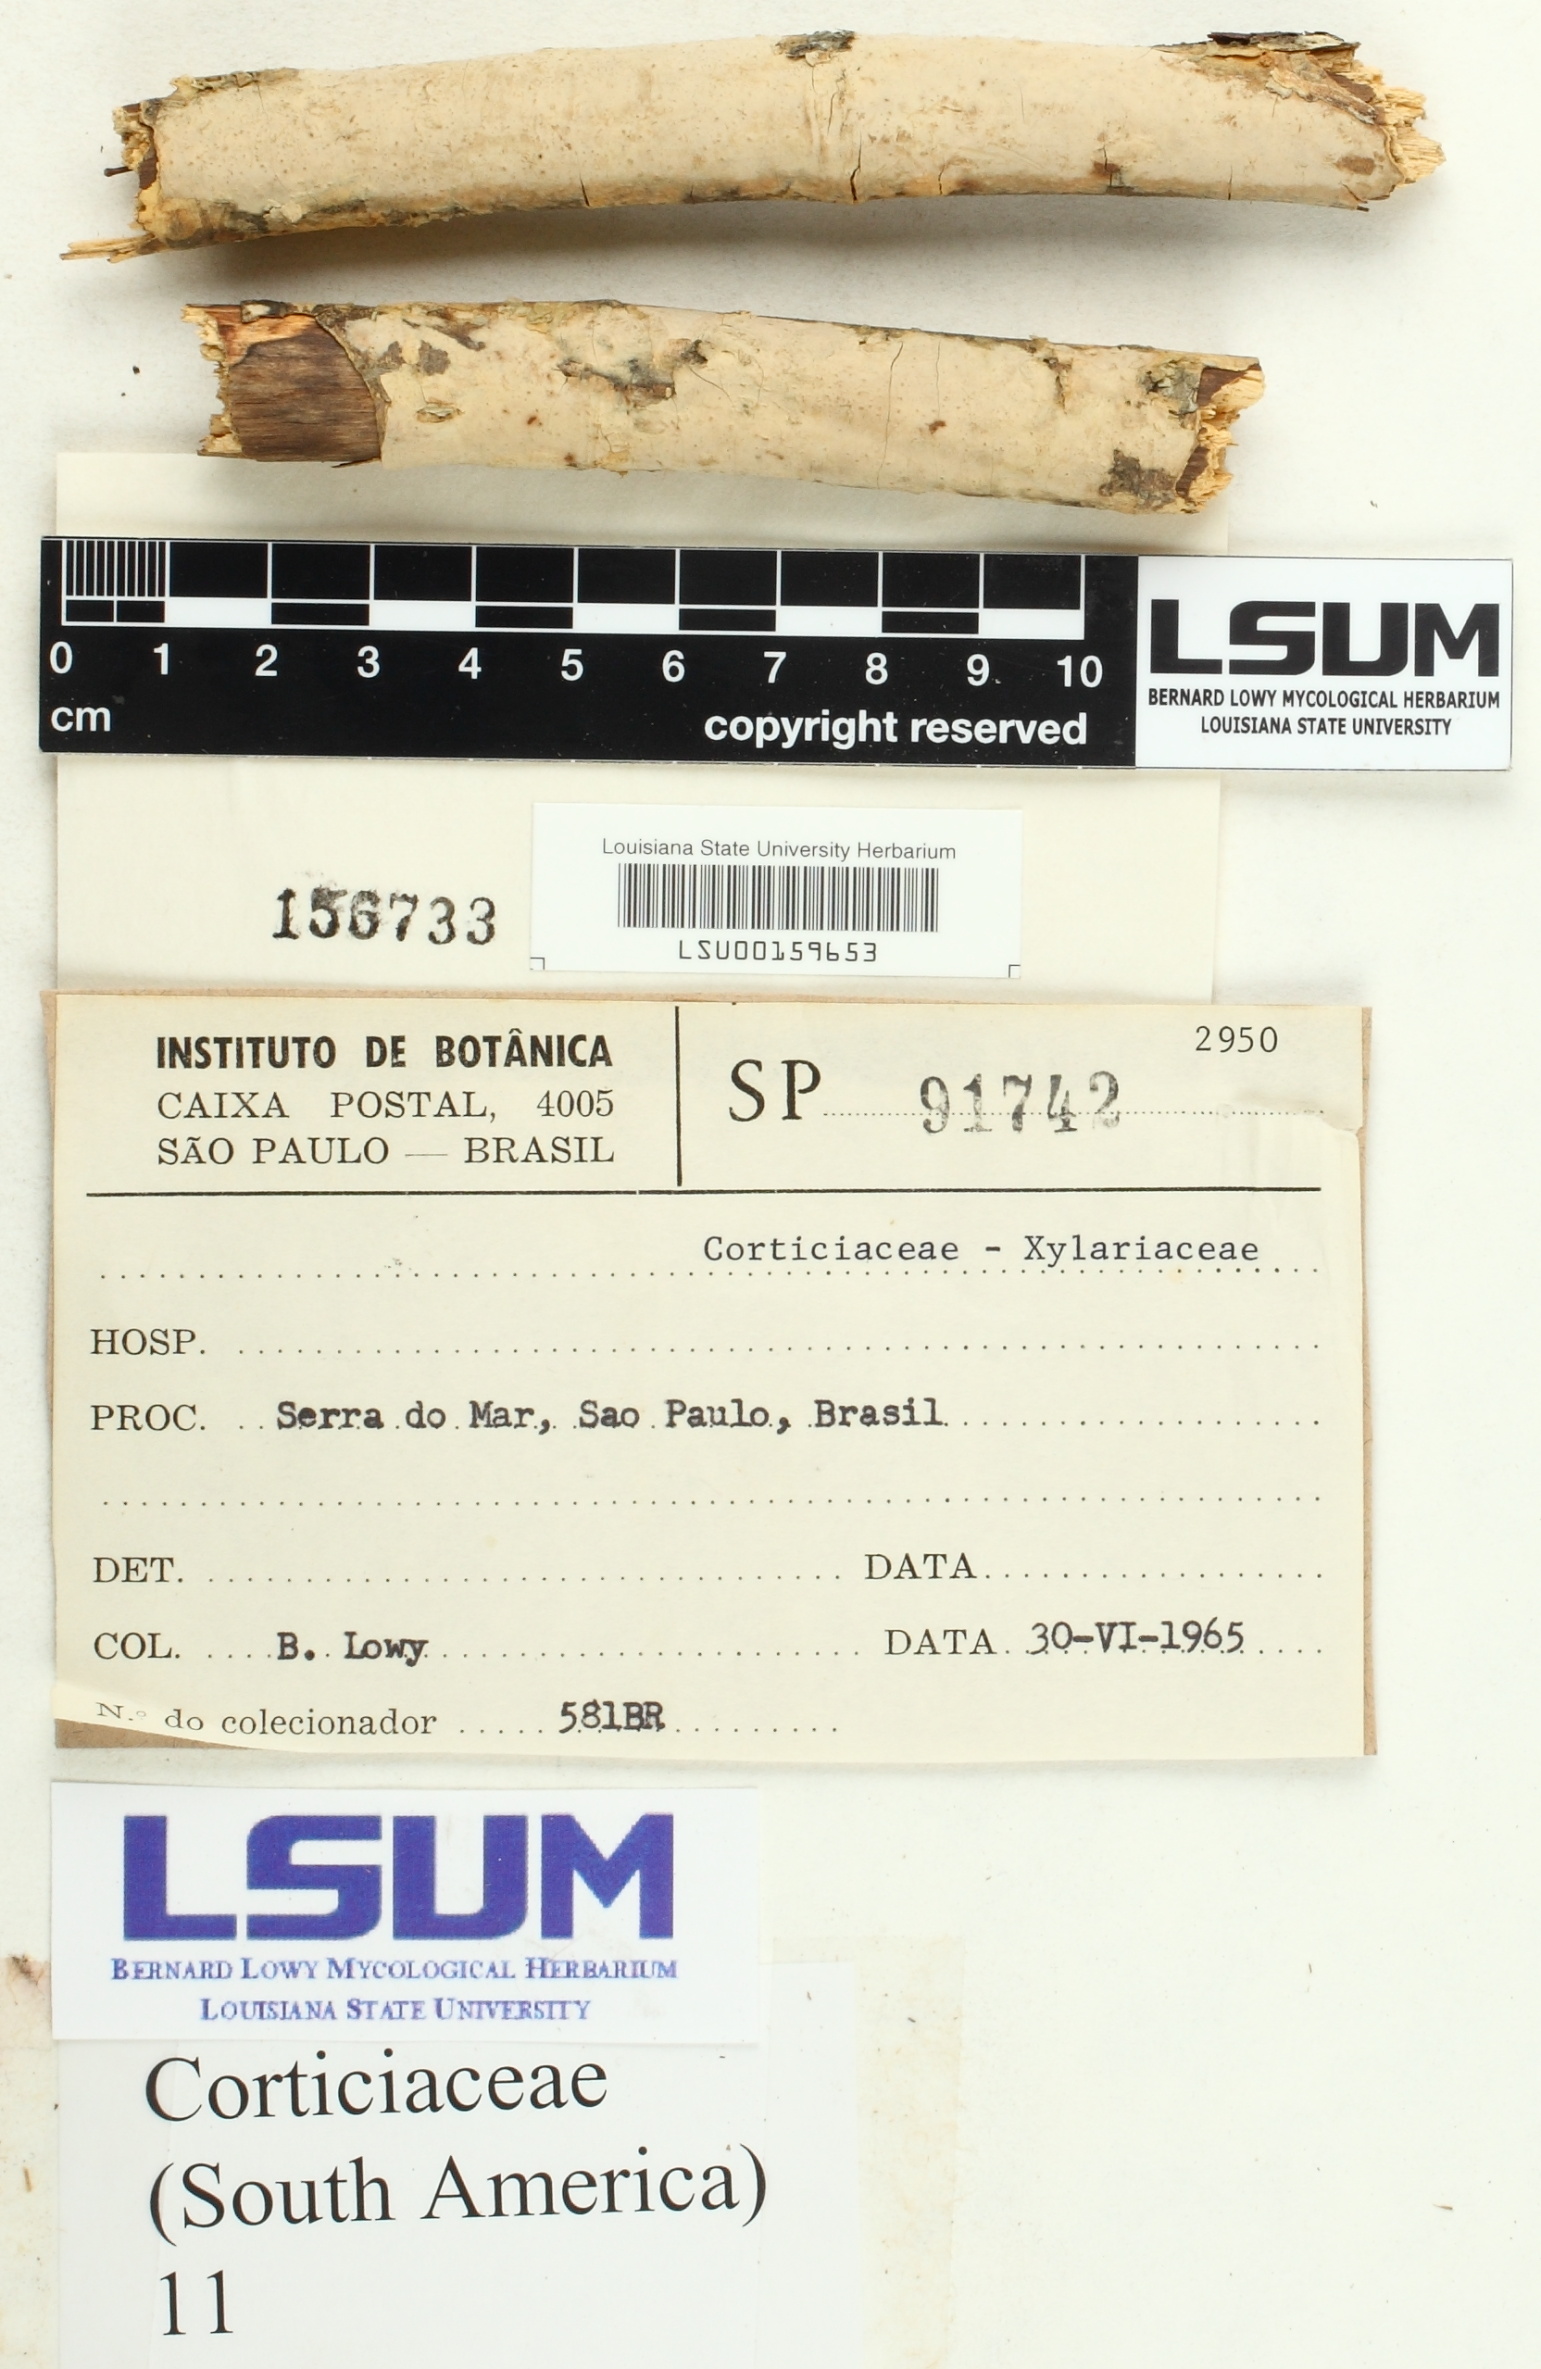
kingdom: Fungi
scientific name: Fungi
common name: Fungi
